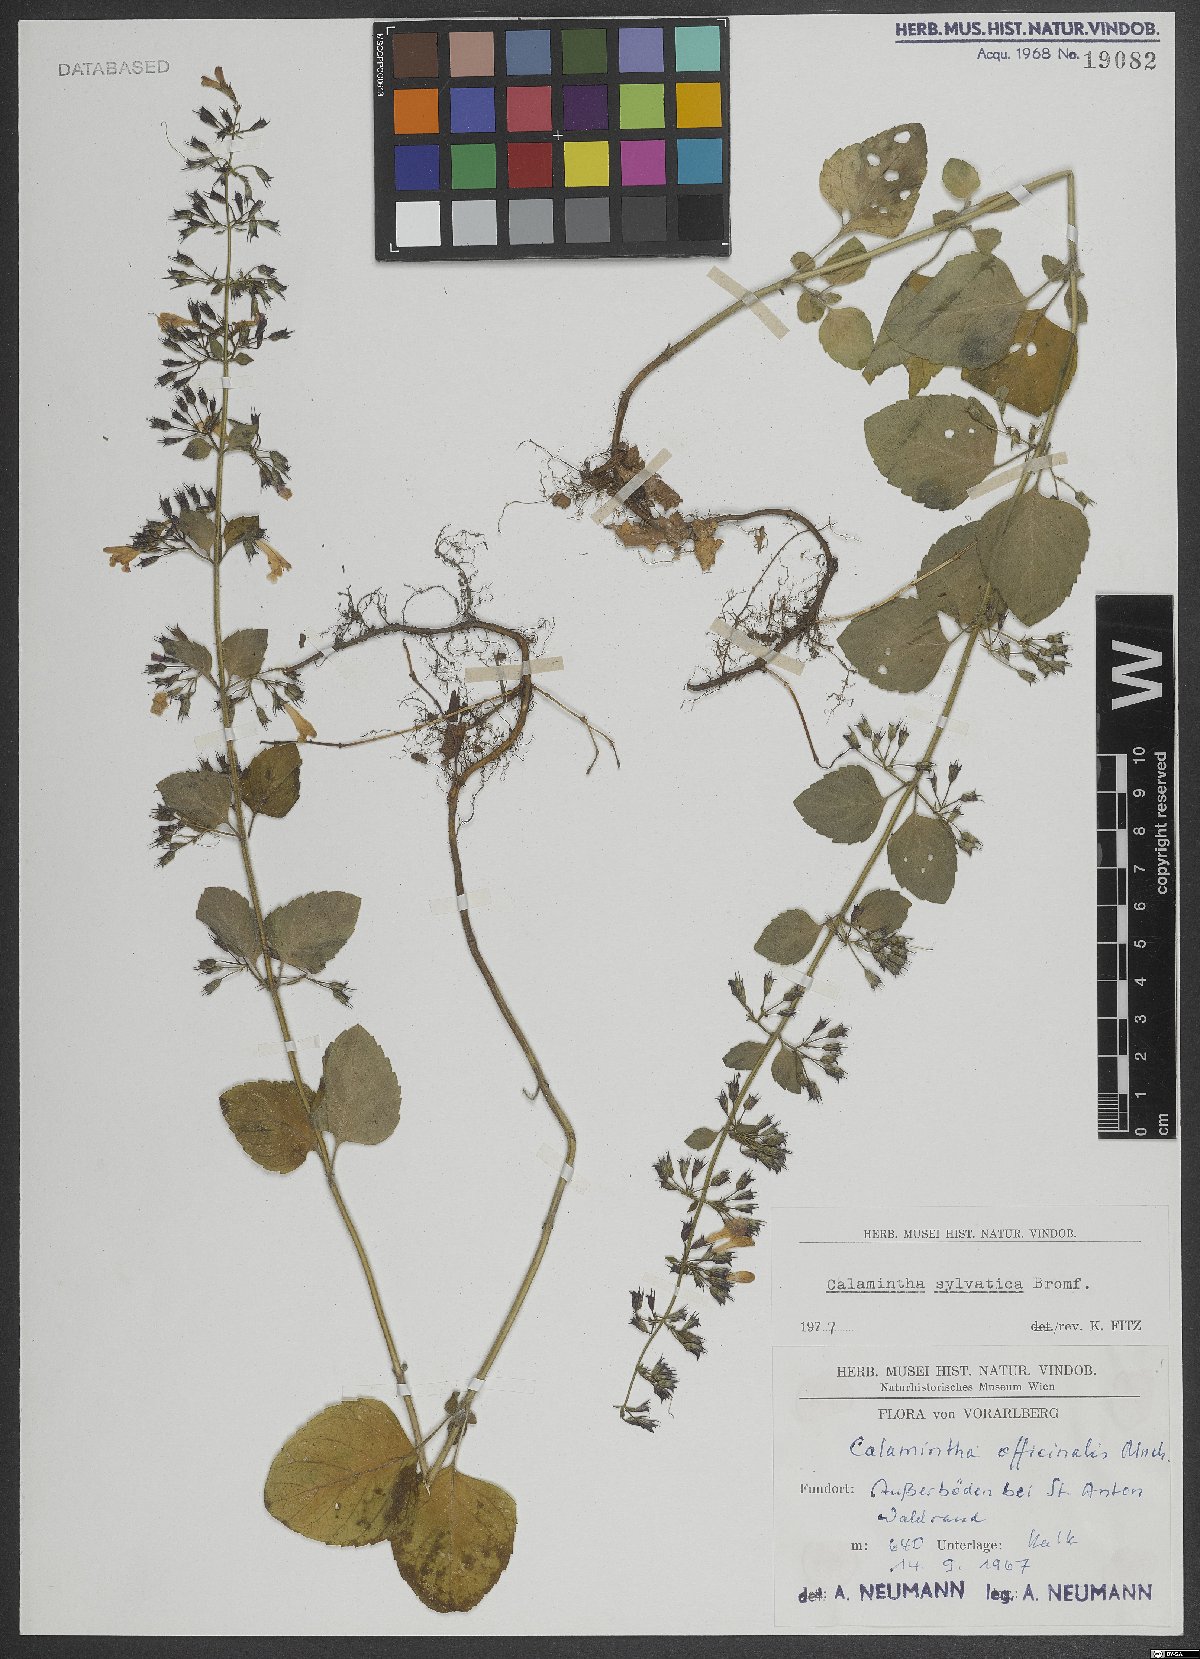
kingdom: Plantae
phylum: Tracheophyta
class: Magnoliopsida
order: Lamiales
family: Lamiaceae
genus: Clinopodium
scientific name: Clinopodium menthifolium
